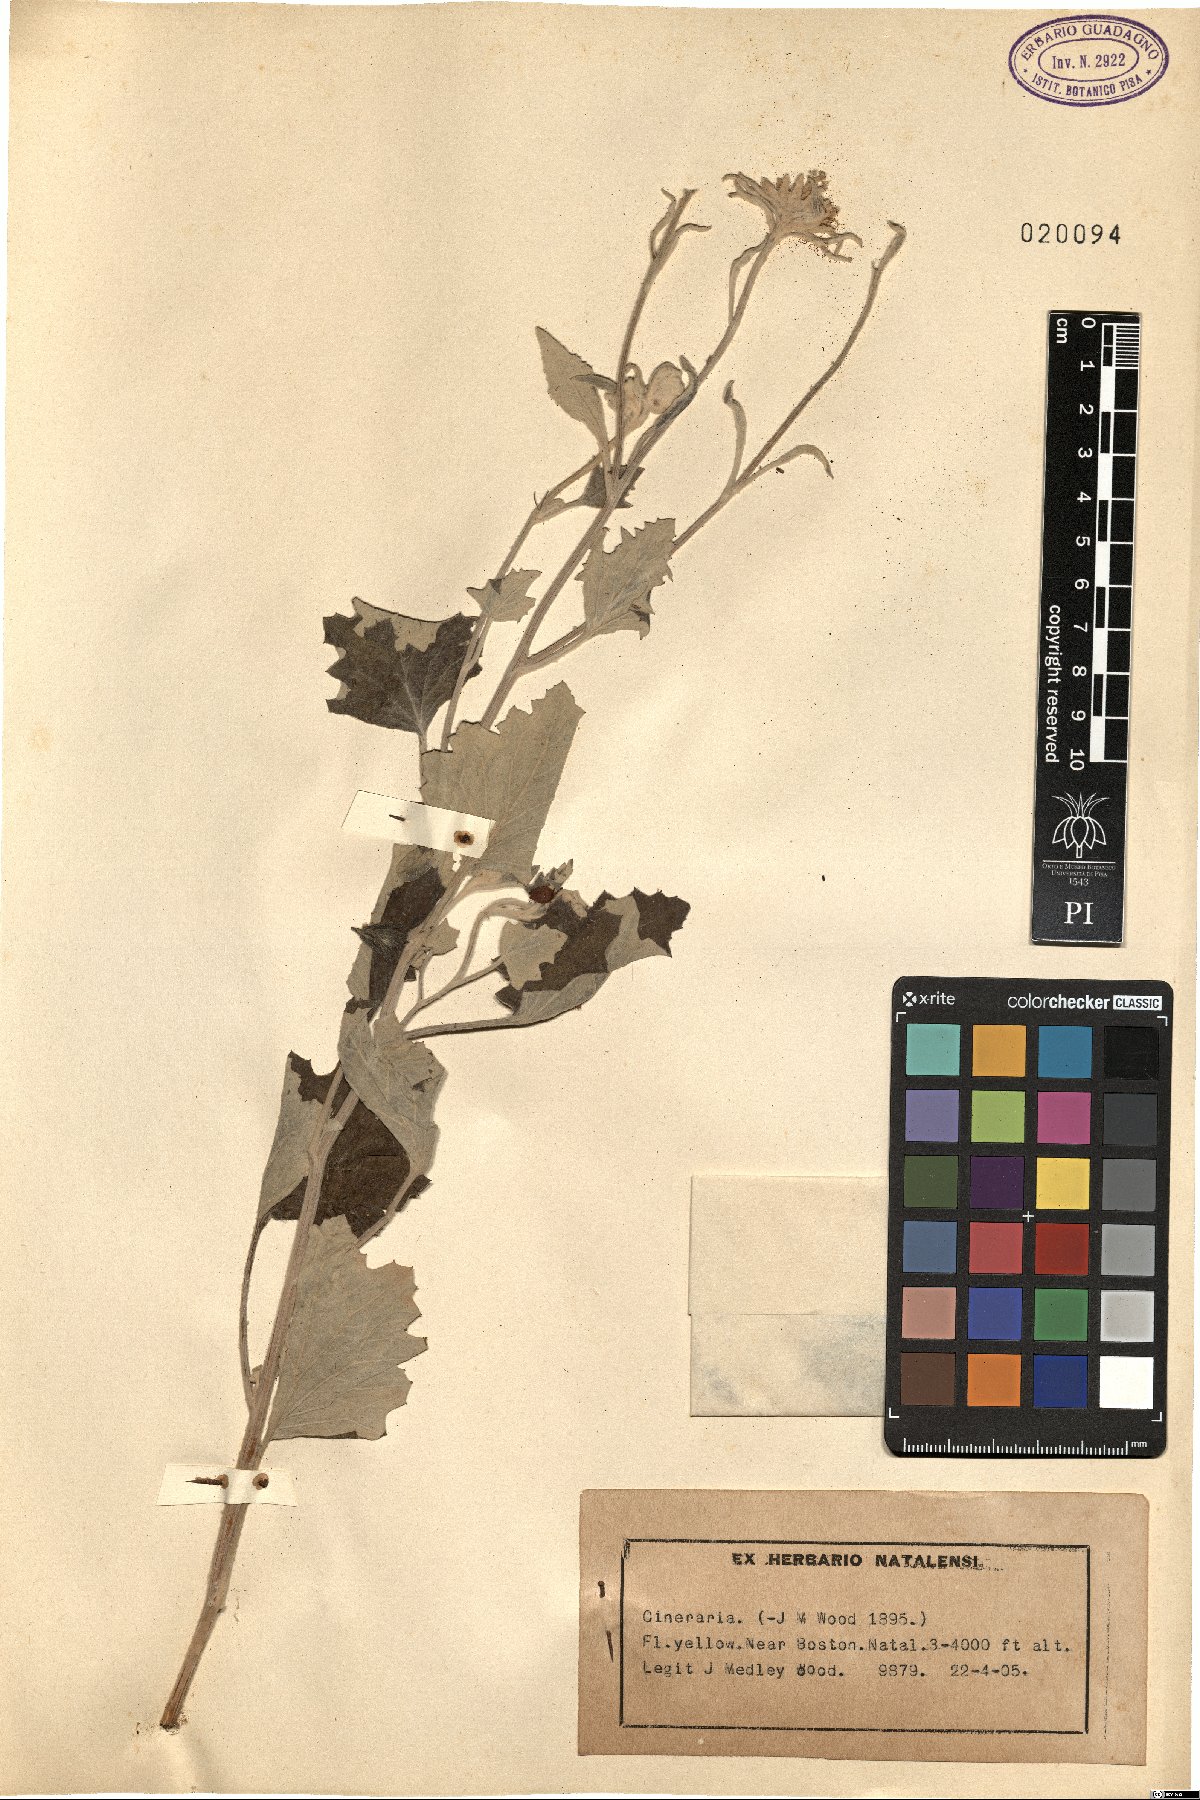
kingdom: Plantae
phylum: Tracheophyta
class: Magnoliopsida
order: Asterales
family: Asteraceae
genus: Cineraria
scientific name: Cineraria
